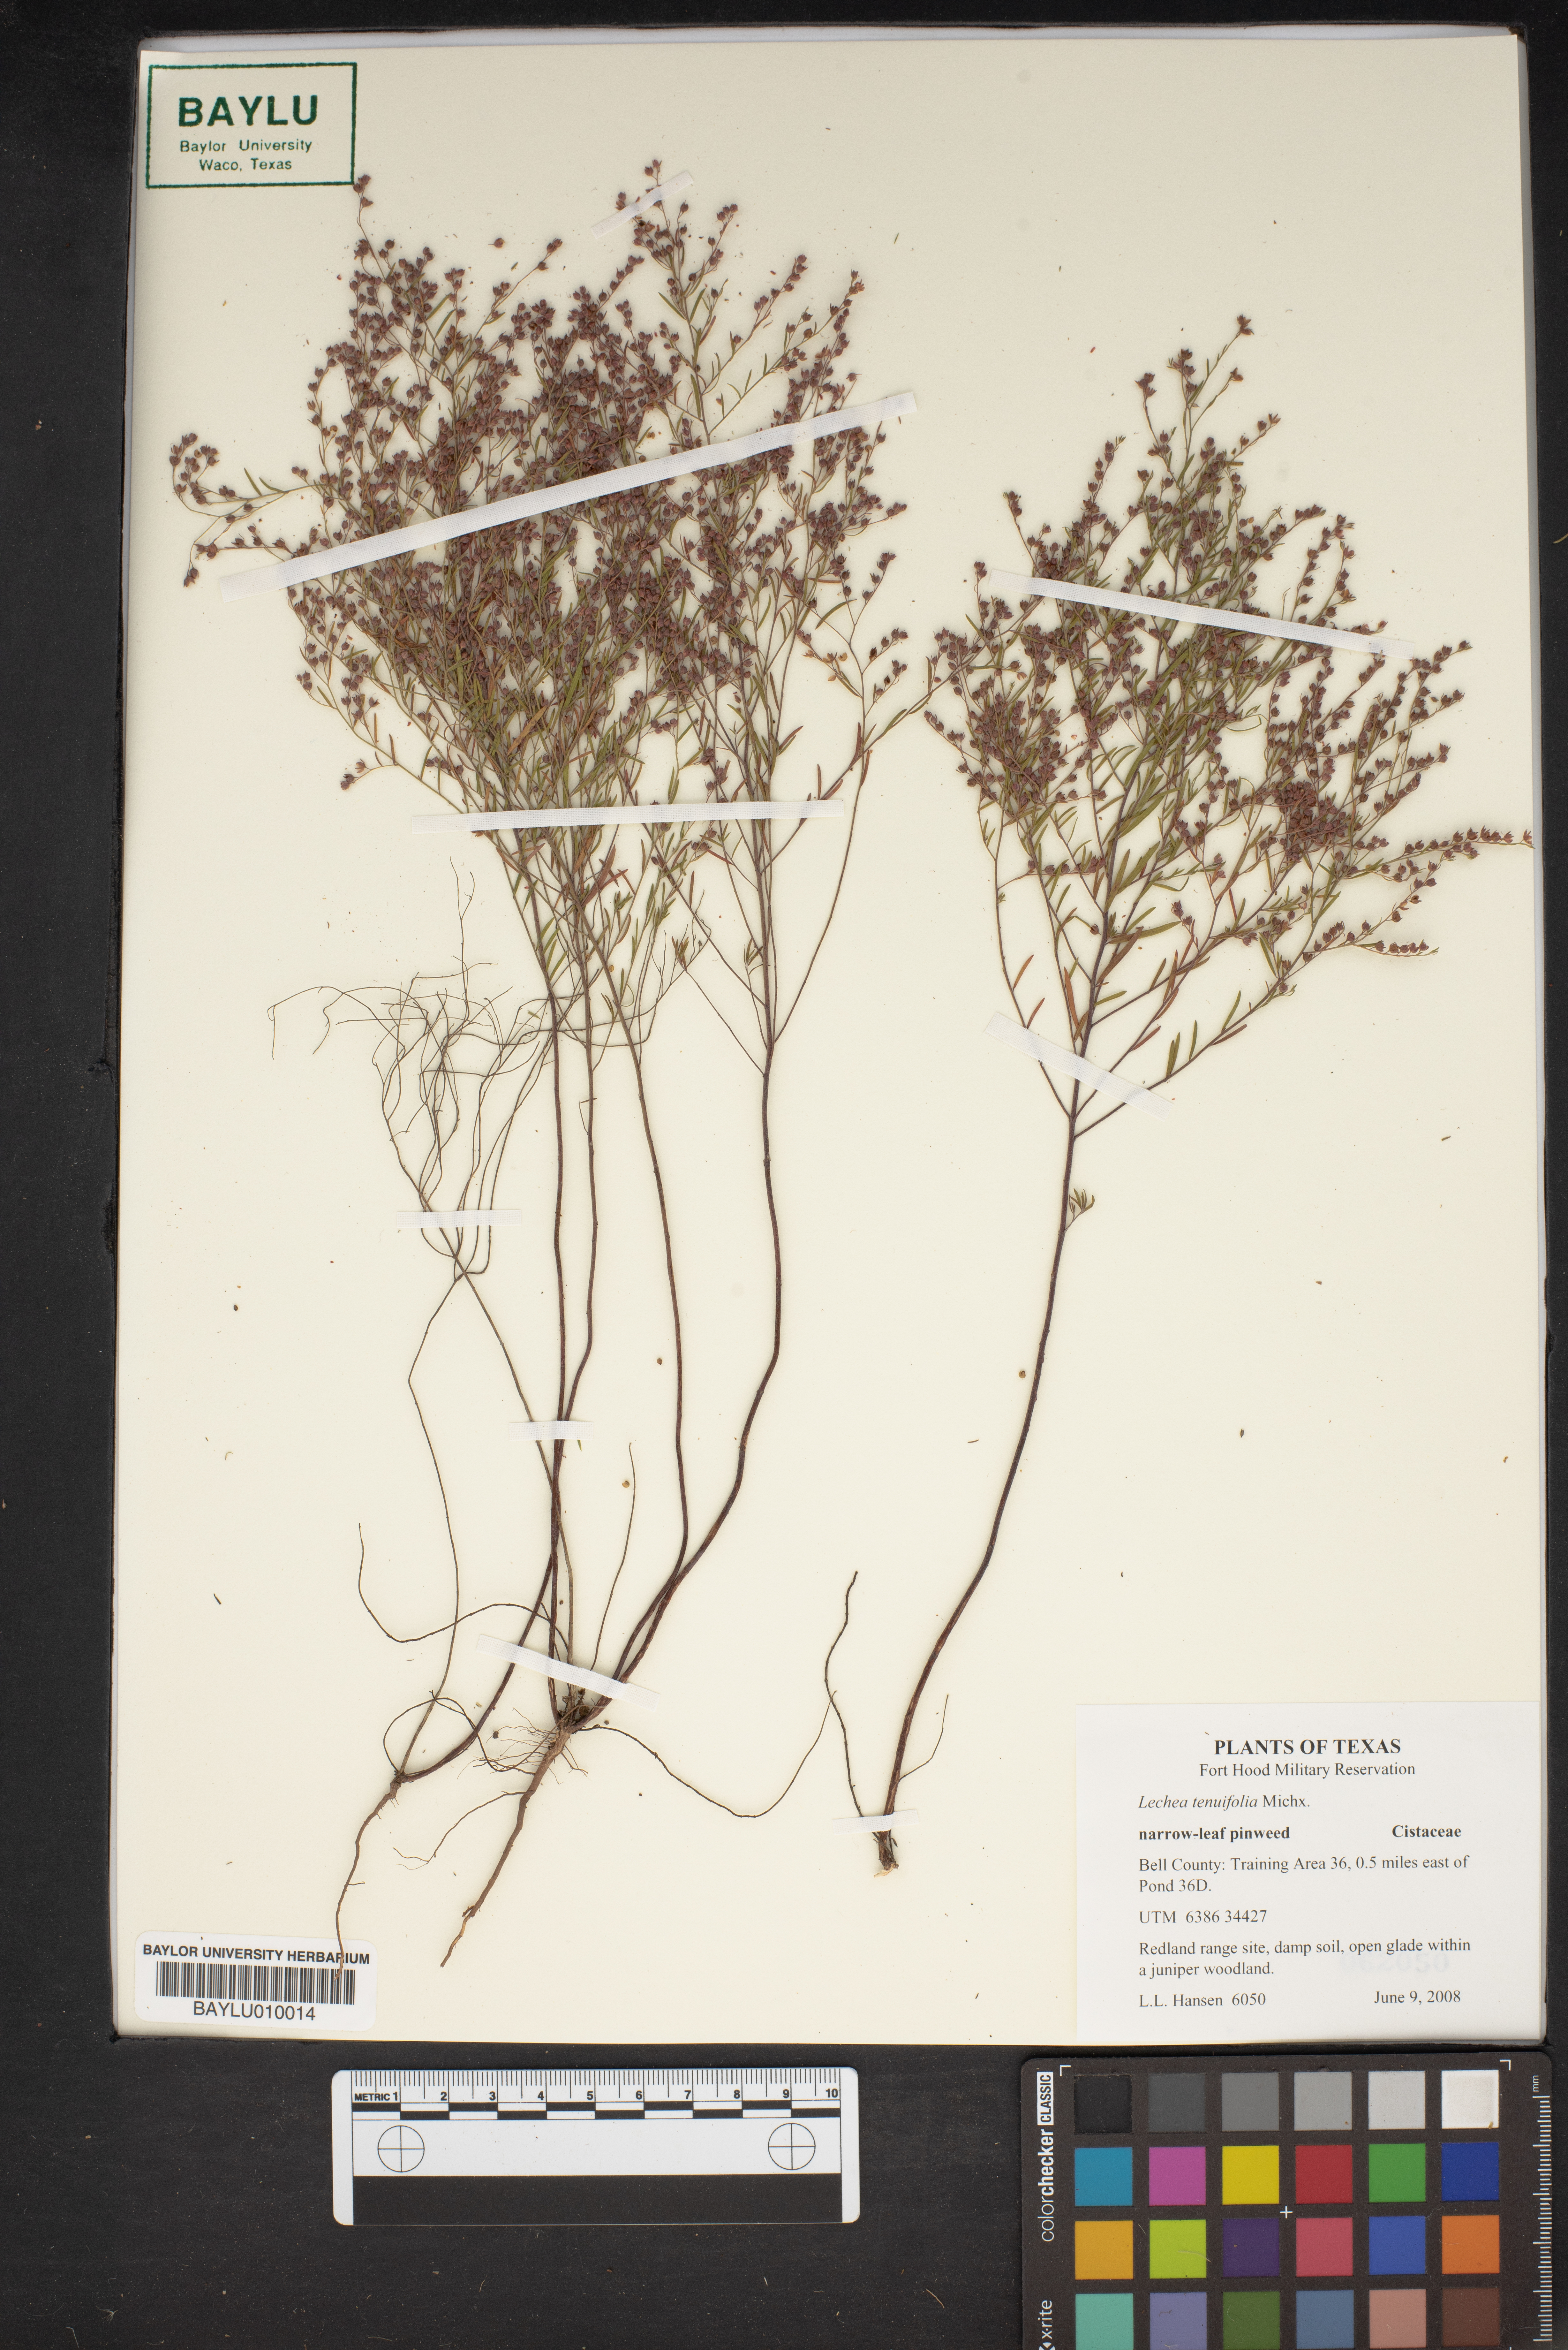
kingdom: Plantae
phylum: Tracheophyta
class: Magnoliopsida
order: Malvales
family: Cistaceae
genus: Lechea
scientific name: Lechea tenuifolia
